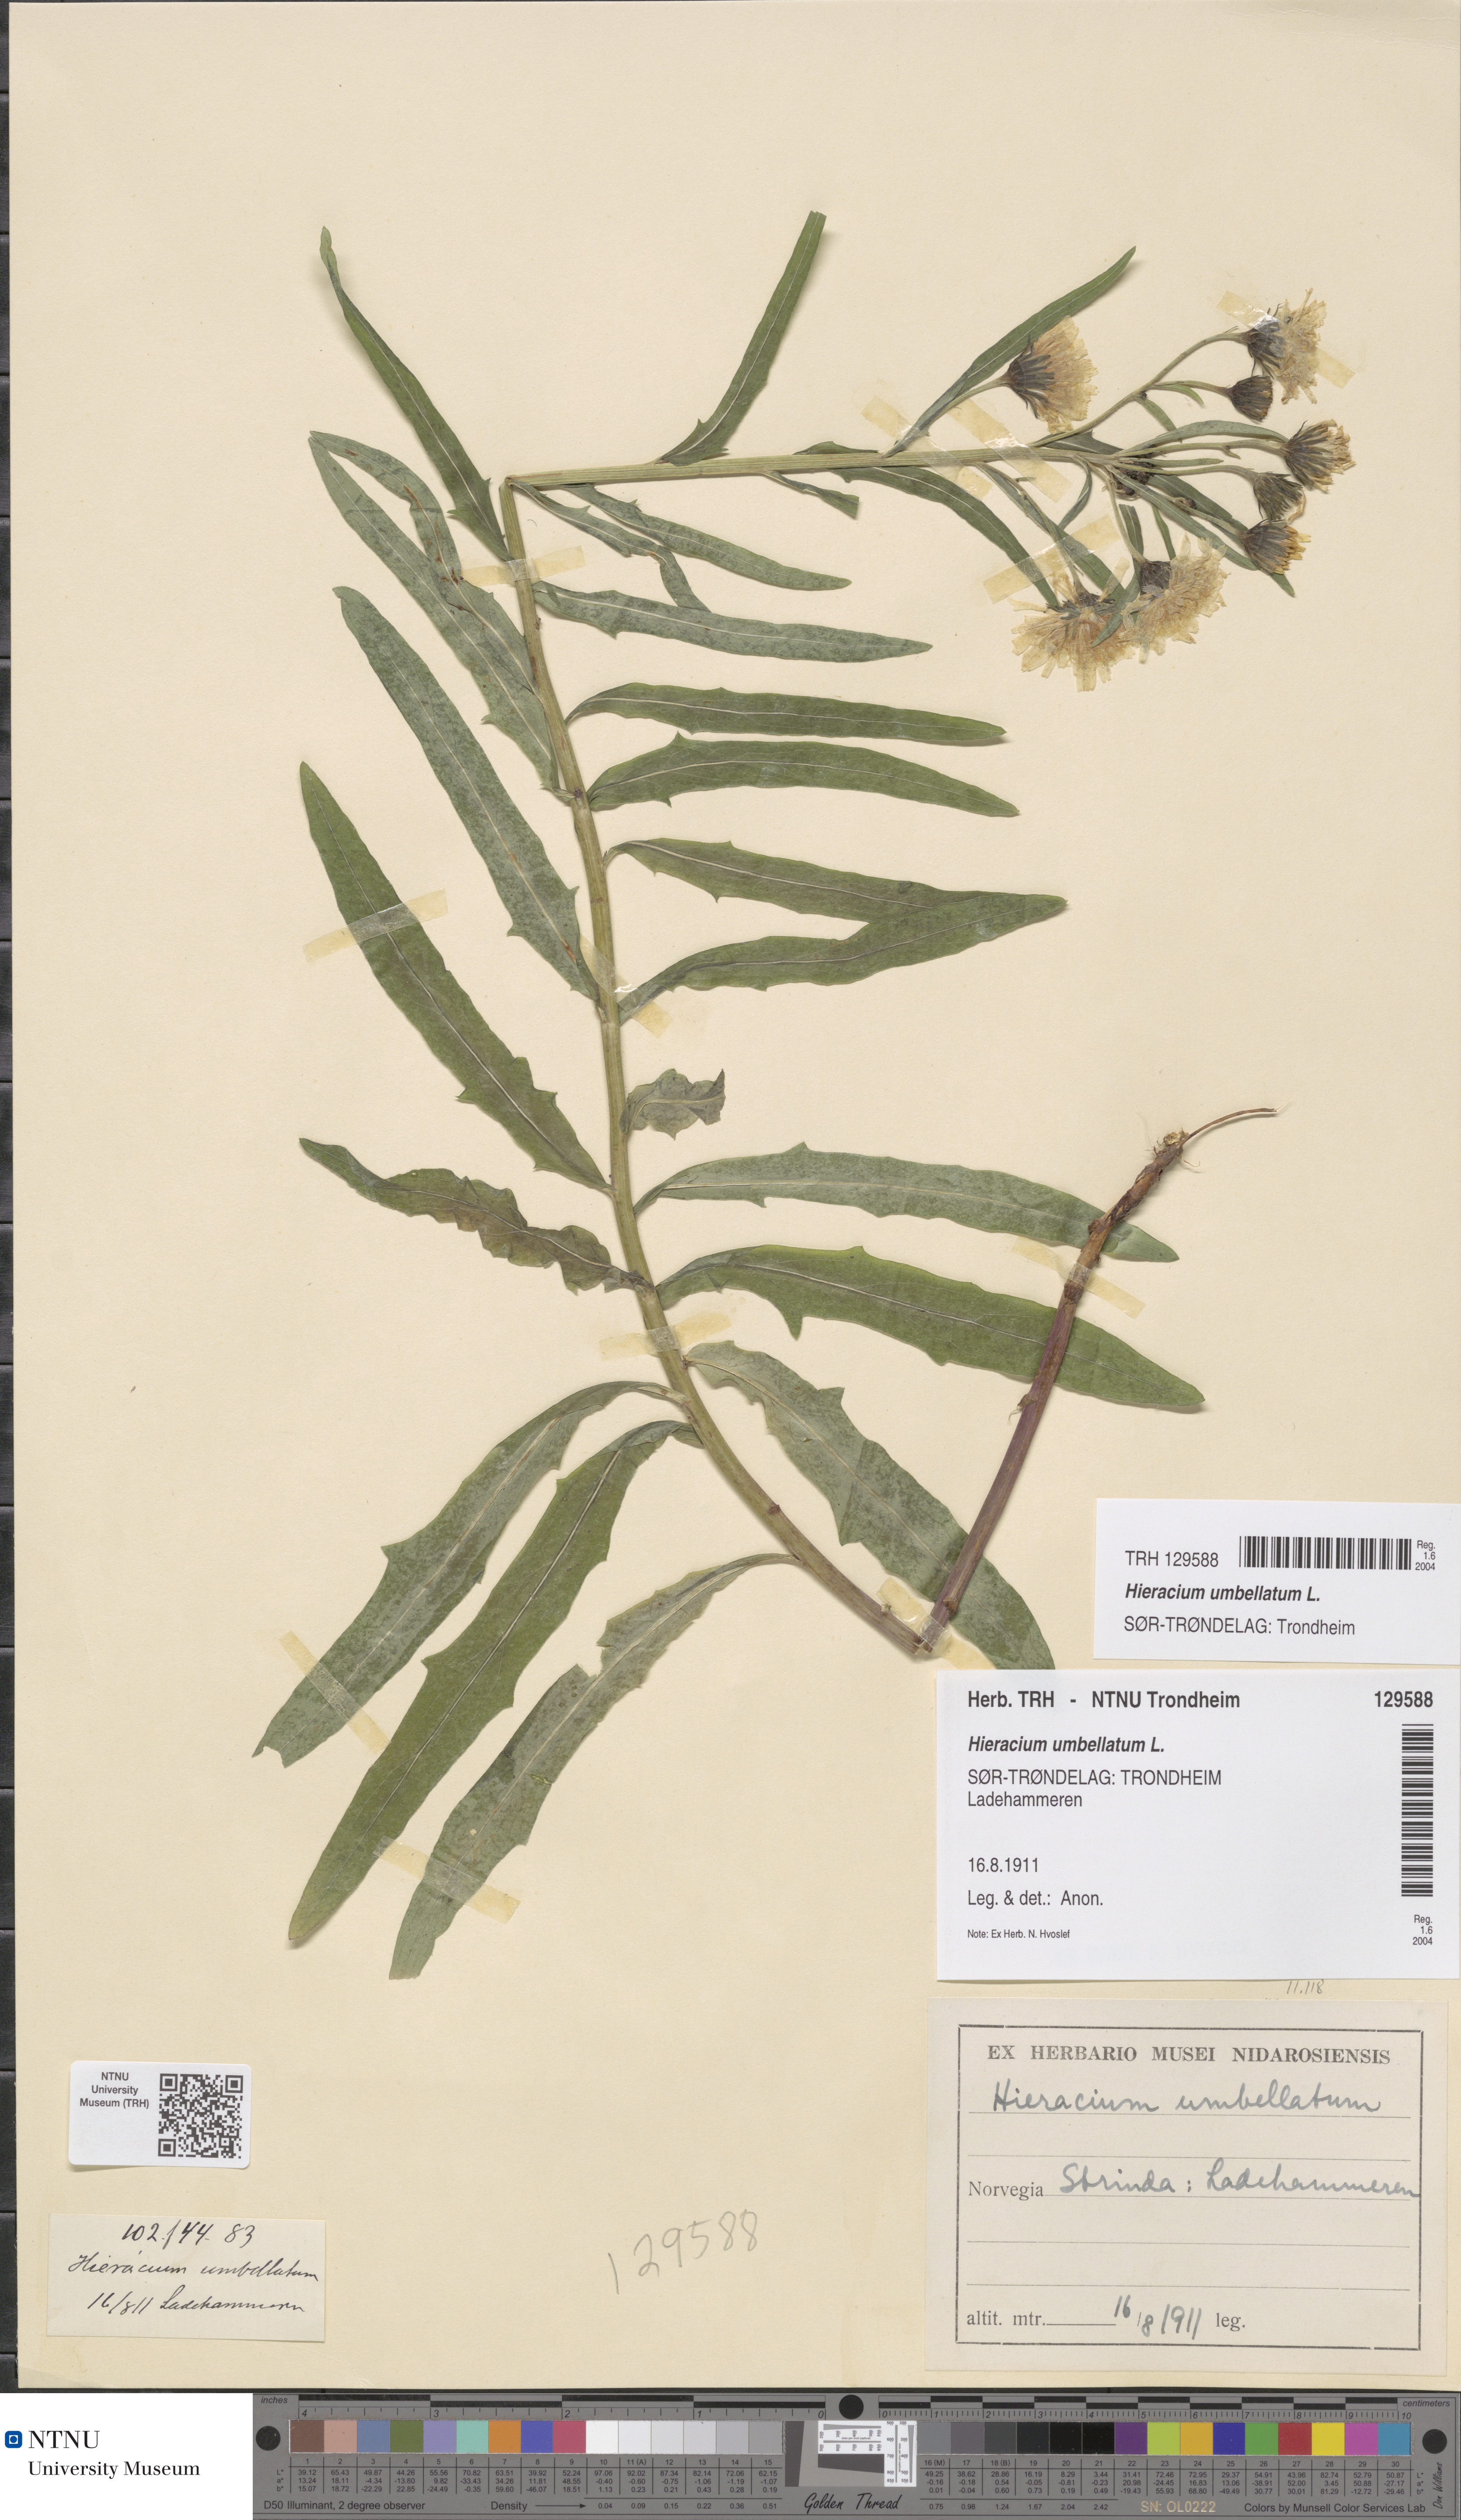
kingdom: Plantae
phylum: Tracheophyta
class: Magnoliopsida
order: Asterales
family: Asteraceae
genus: Hieracium
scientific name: Hieracium umbellatum
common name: Northern hawkweed
